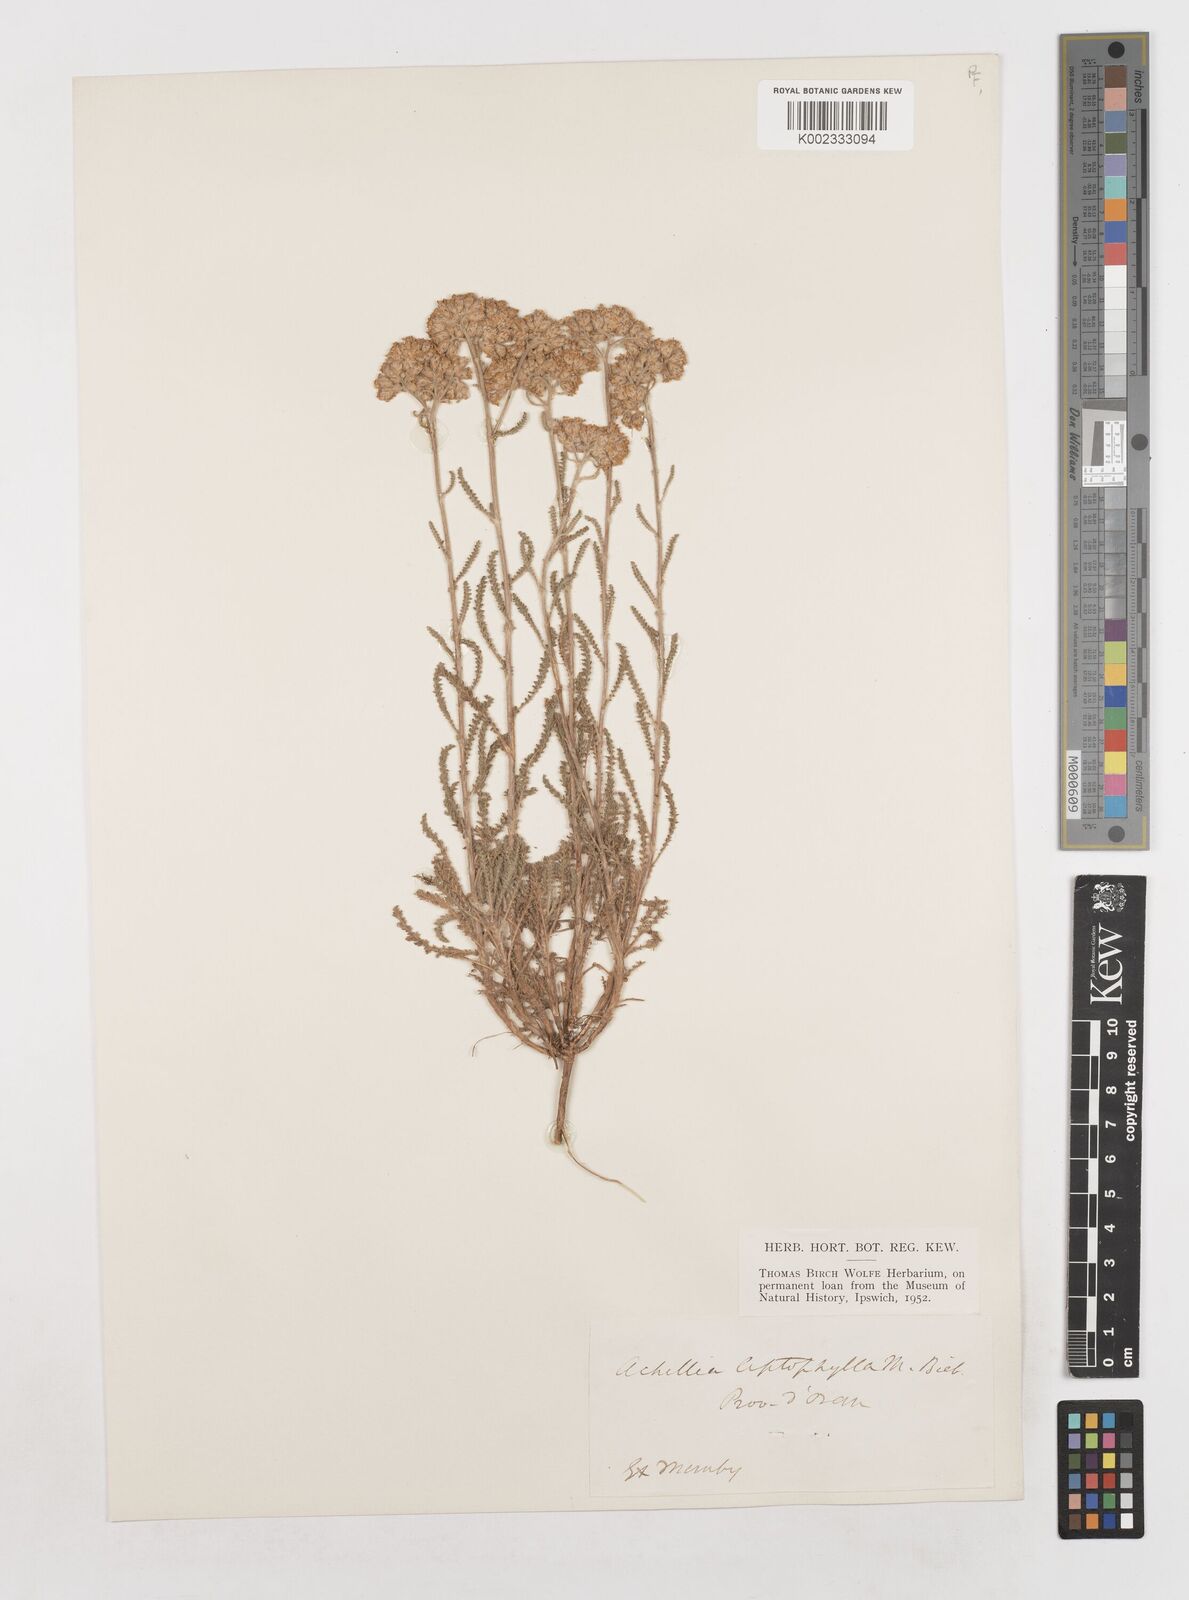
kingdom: Plantae
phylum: Tracheophyta
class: Magnoliopsida
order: Asterales
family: Asteraceae
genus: Achillea
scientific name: Achillea leptophylla
